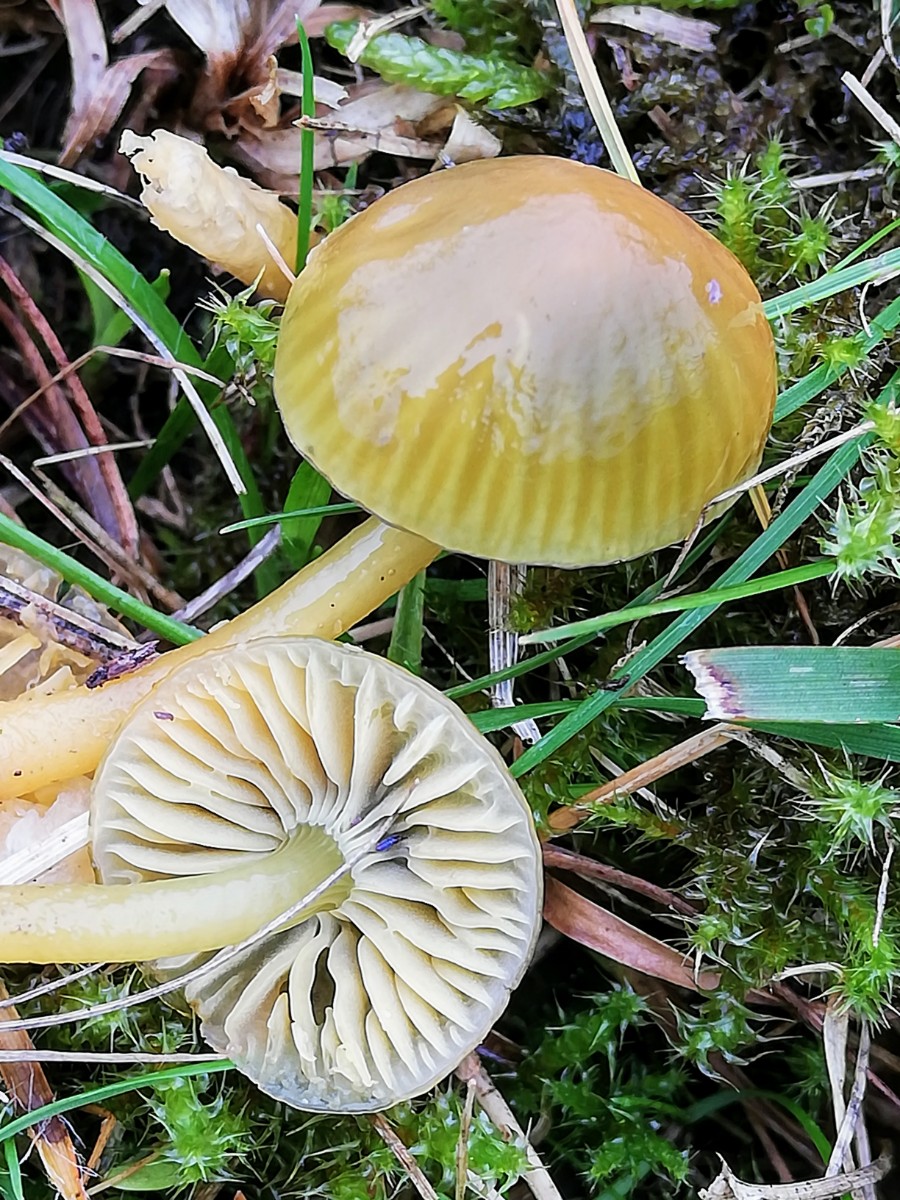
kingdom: Fungi
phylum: Basidiomycota
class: Agaricomycetes
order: Agaricales
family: Hygrophoraceae
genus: Gliophorus
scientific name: Gliophorus psittacinus
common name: papegøje-vokshat
